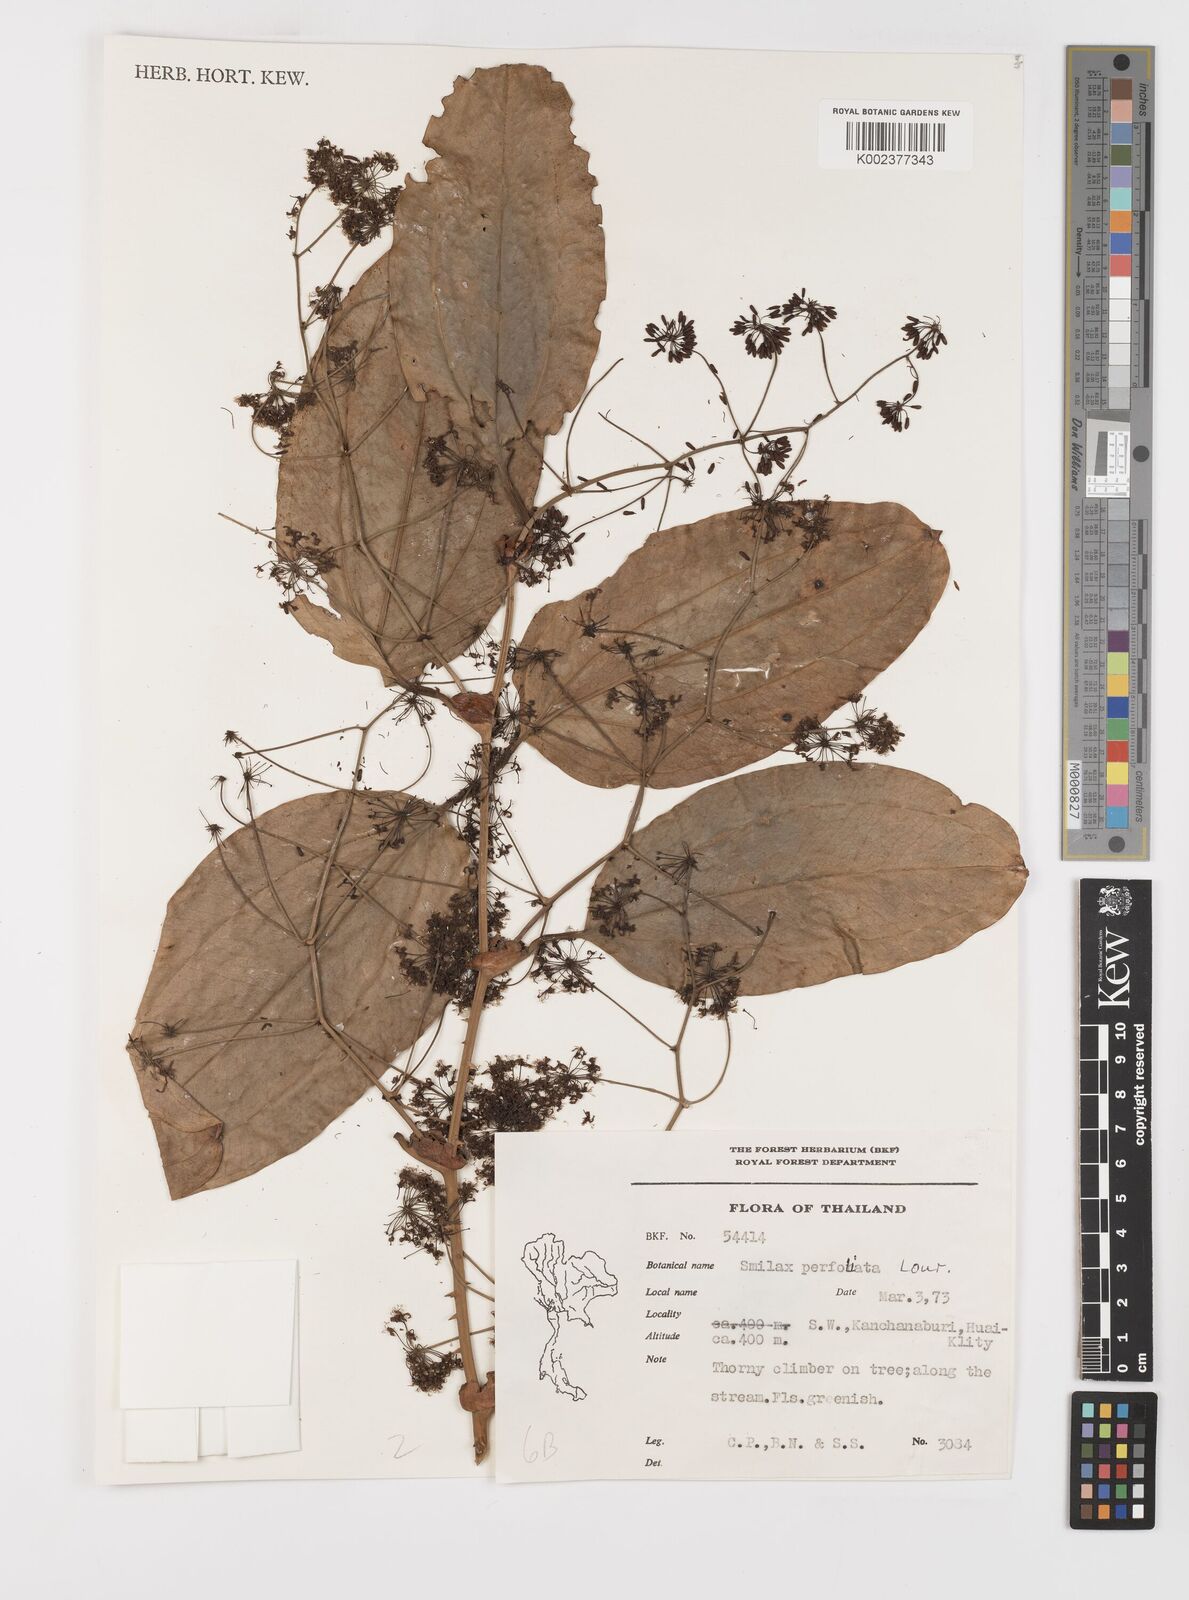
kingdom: Plantae
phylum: Tracheophyta
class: Liliopsida
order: Liliales
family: Smilacaceae
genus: Smilax
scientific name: Smilax perfoliata
